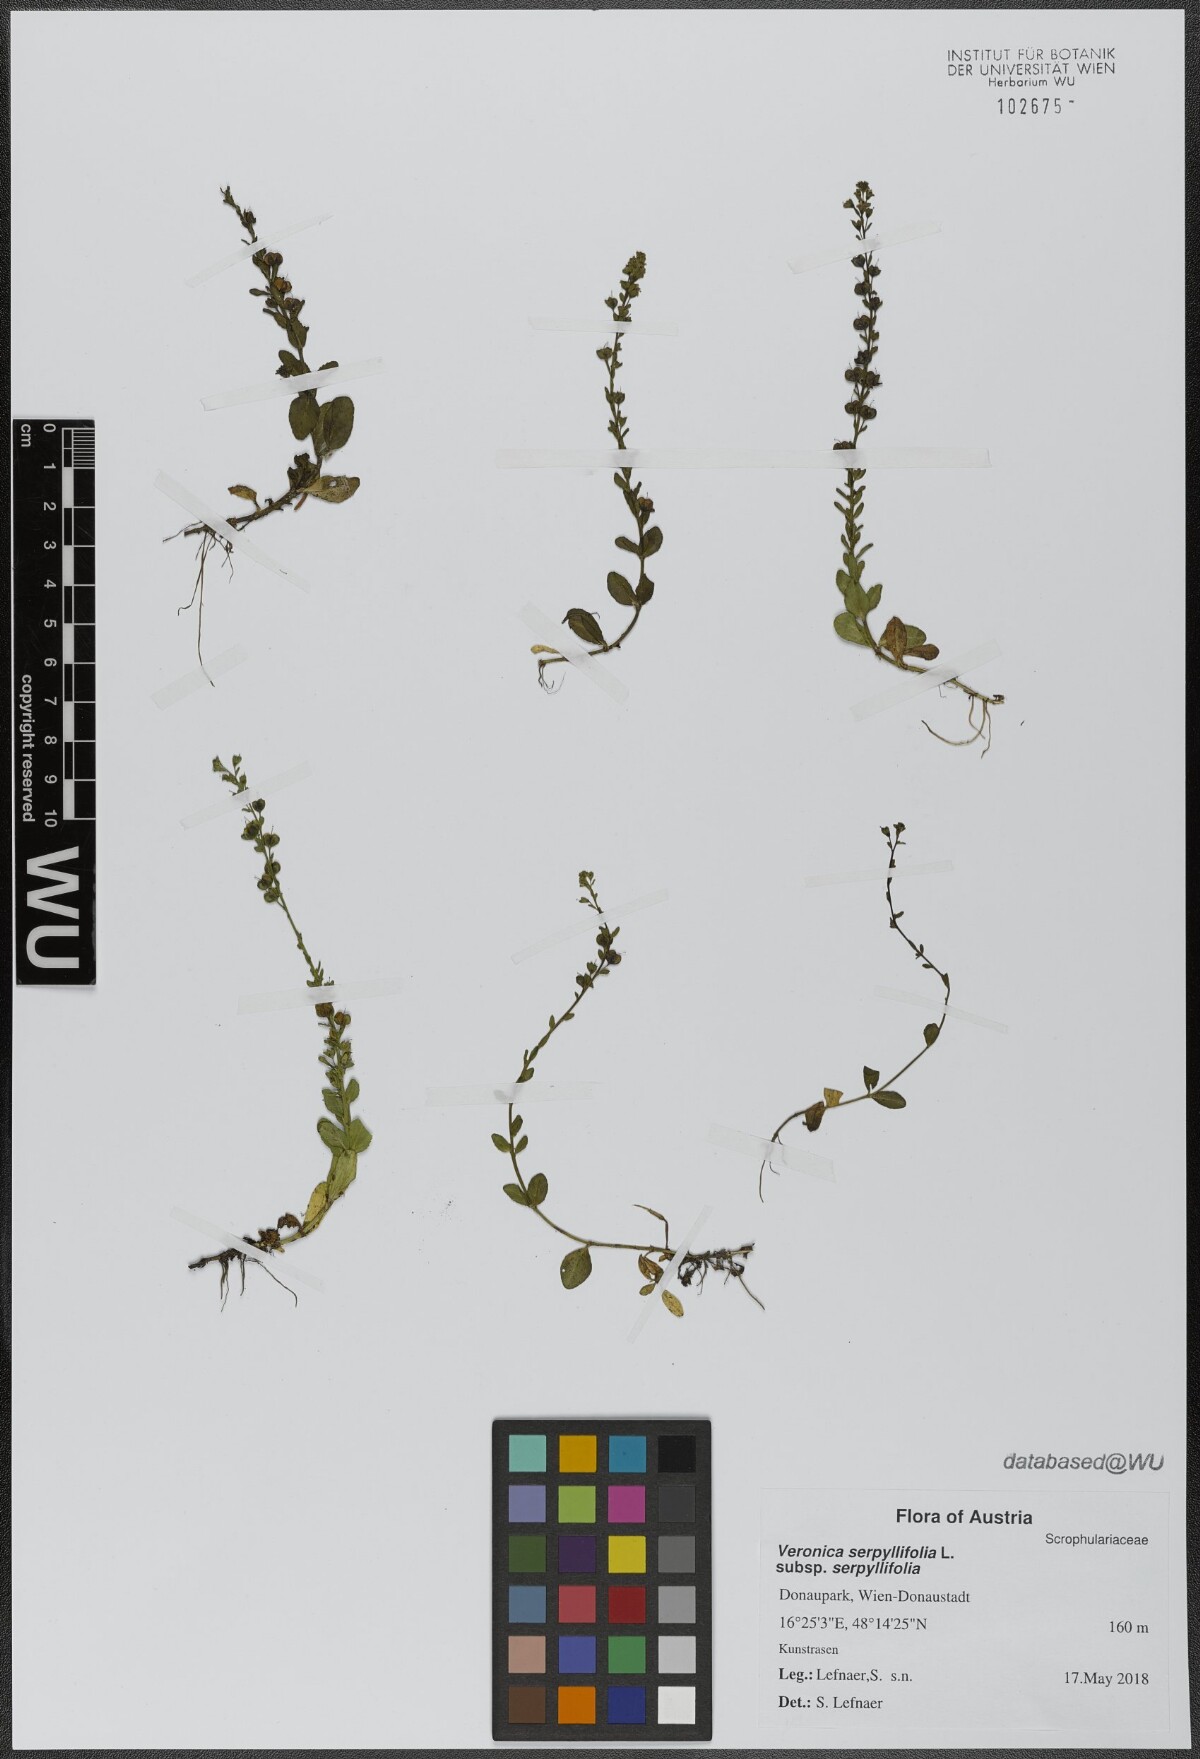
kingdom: Plantae
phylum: Tracheophyta
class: Magnoliopsida
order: Lamiales
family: Plantaginaceae
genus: Veronica
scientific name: Veronica serpyllifolia
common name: Thyme-leaved speedwell
